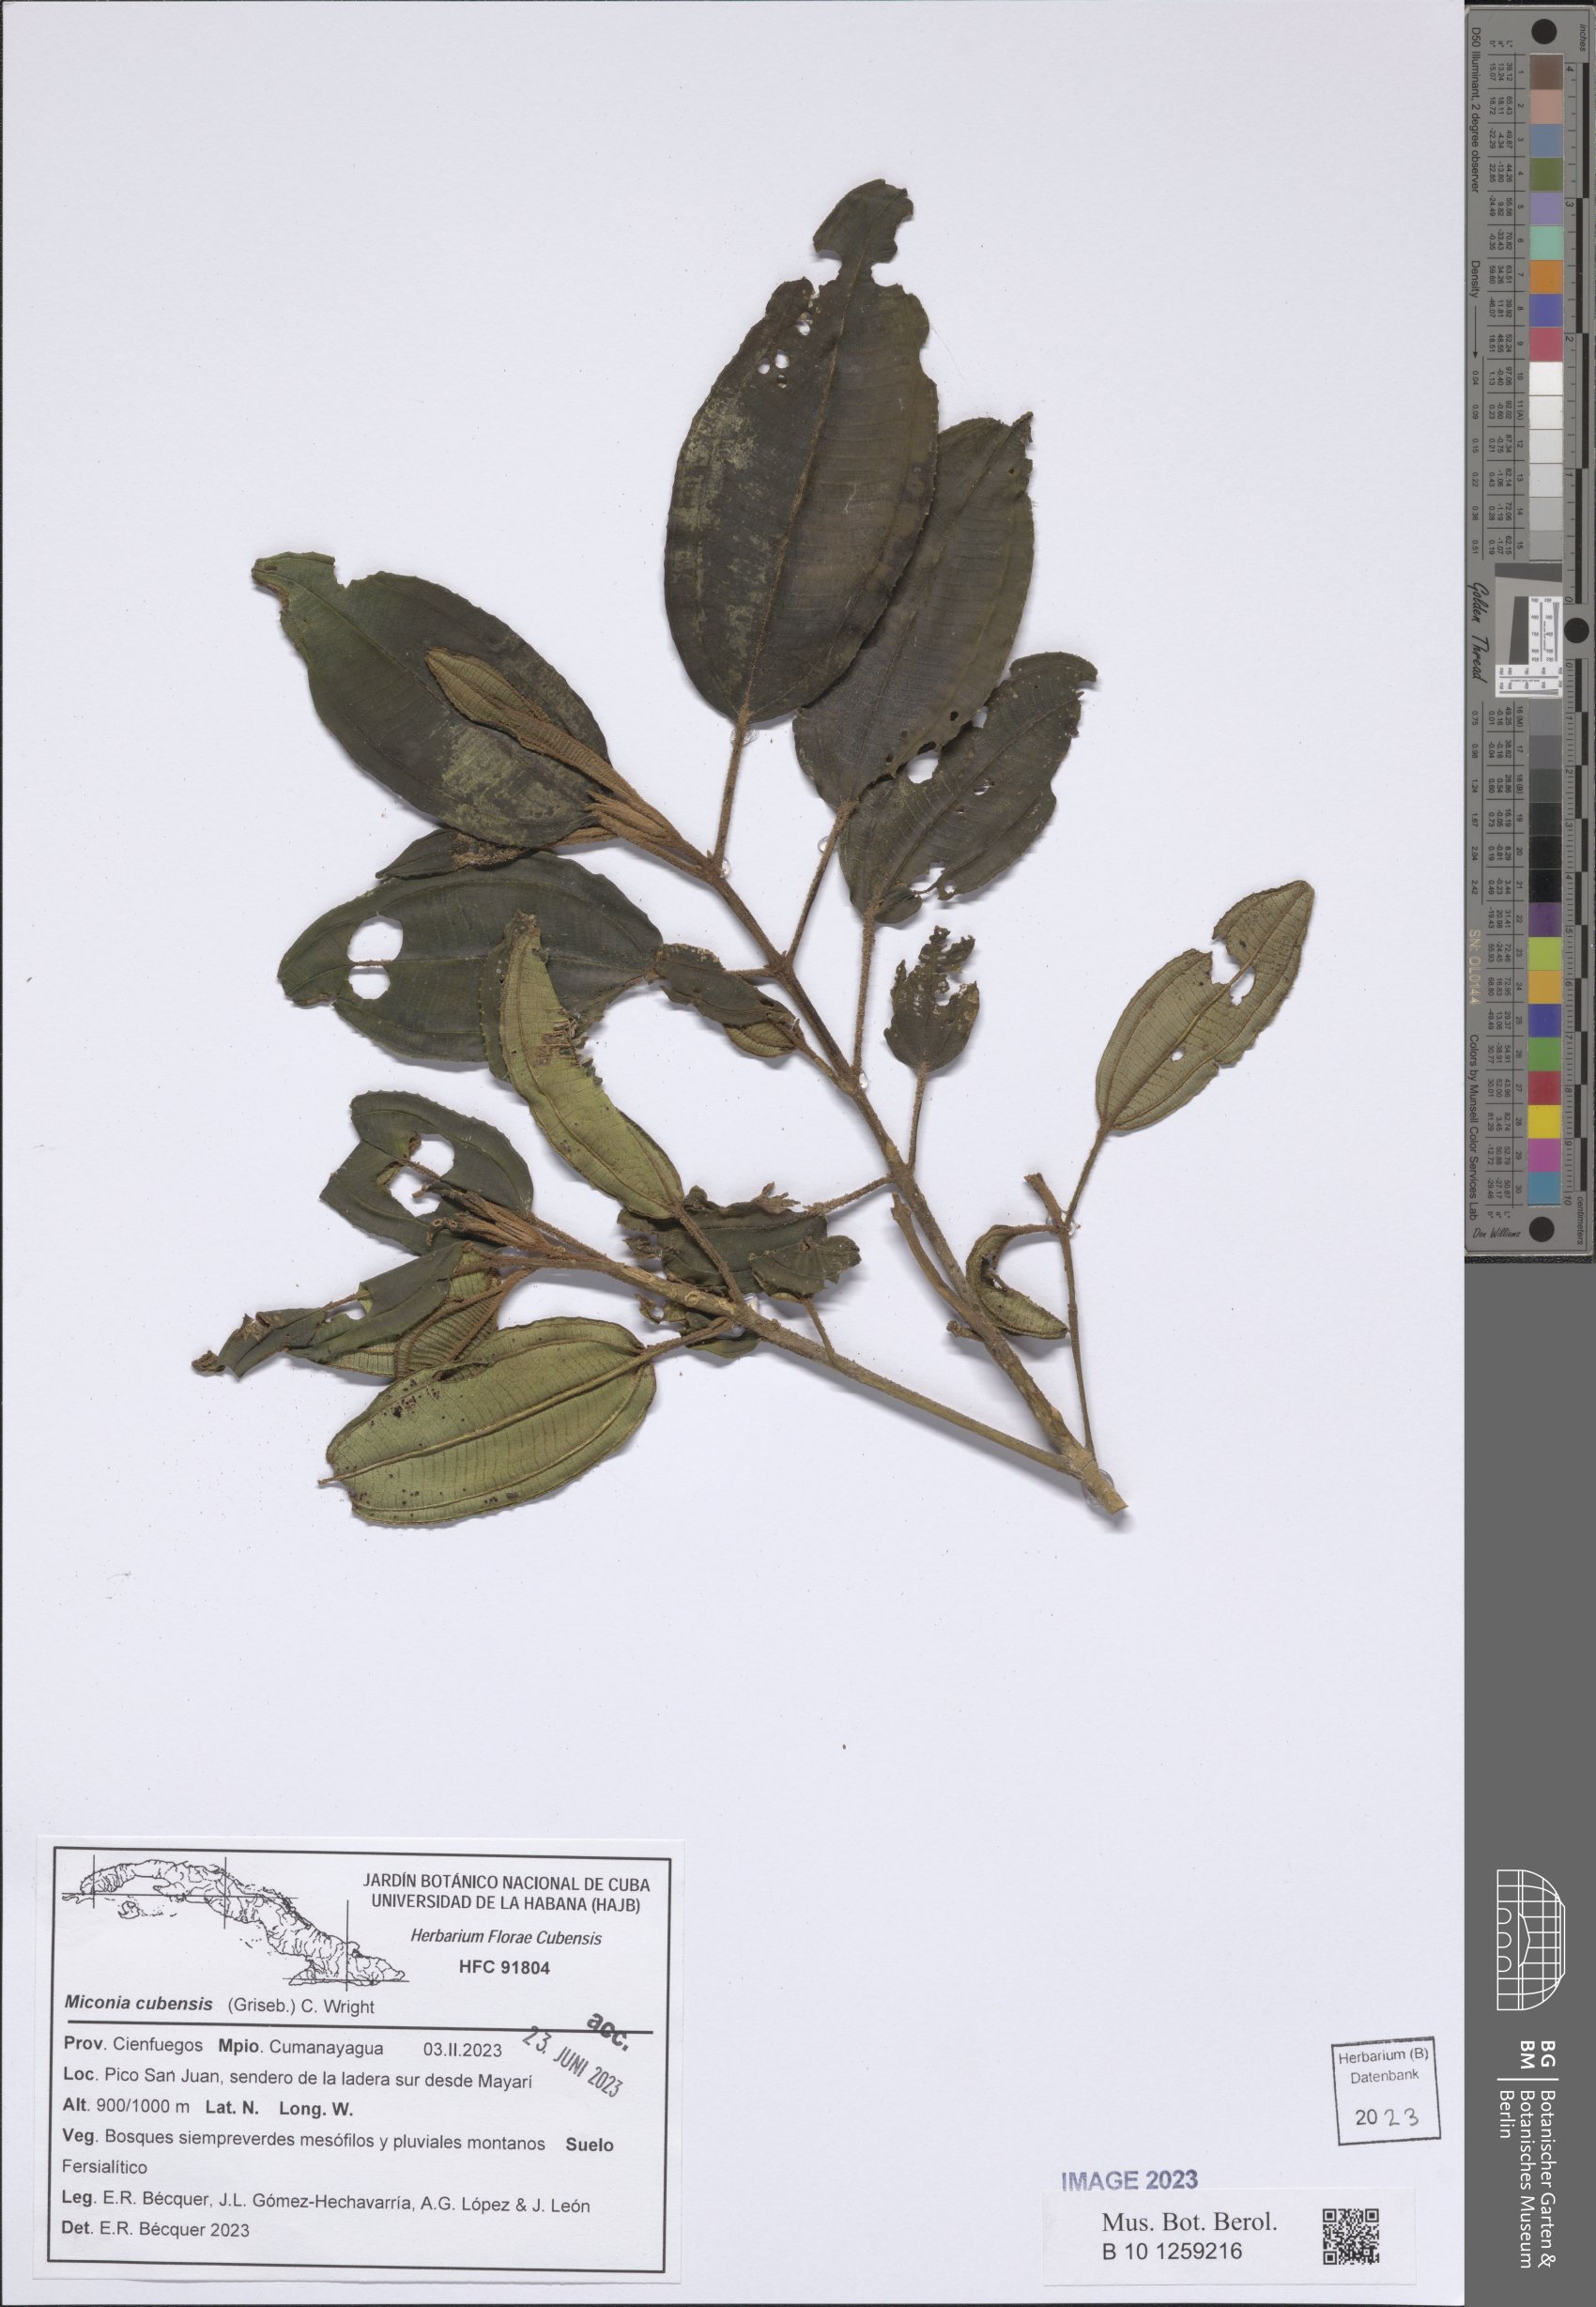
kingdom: Plantae
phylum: Tracheophyta
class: Magnoliopsida
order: Myrtales
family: Melastomataceae
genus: Miconia
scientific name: Miconia cubensis
